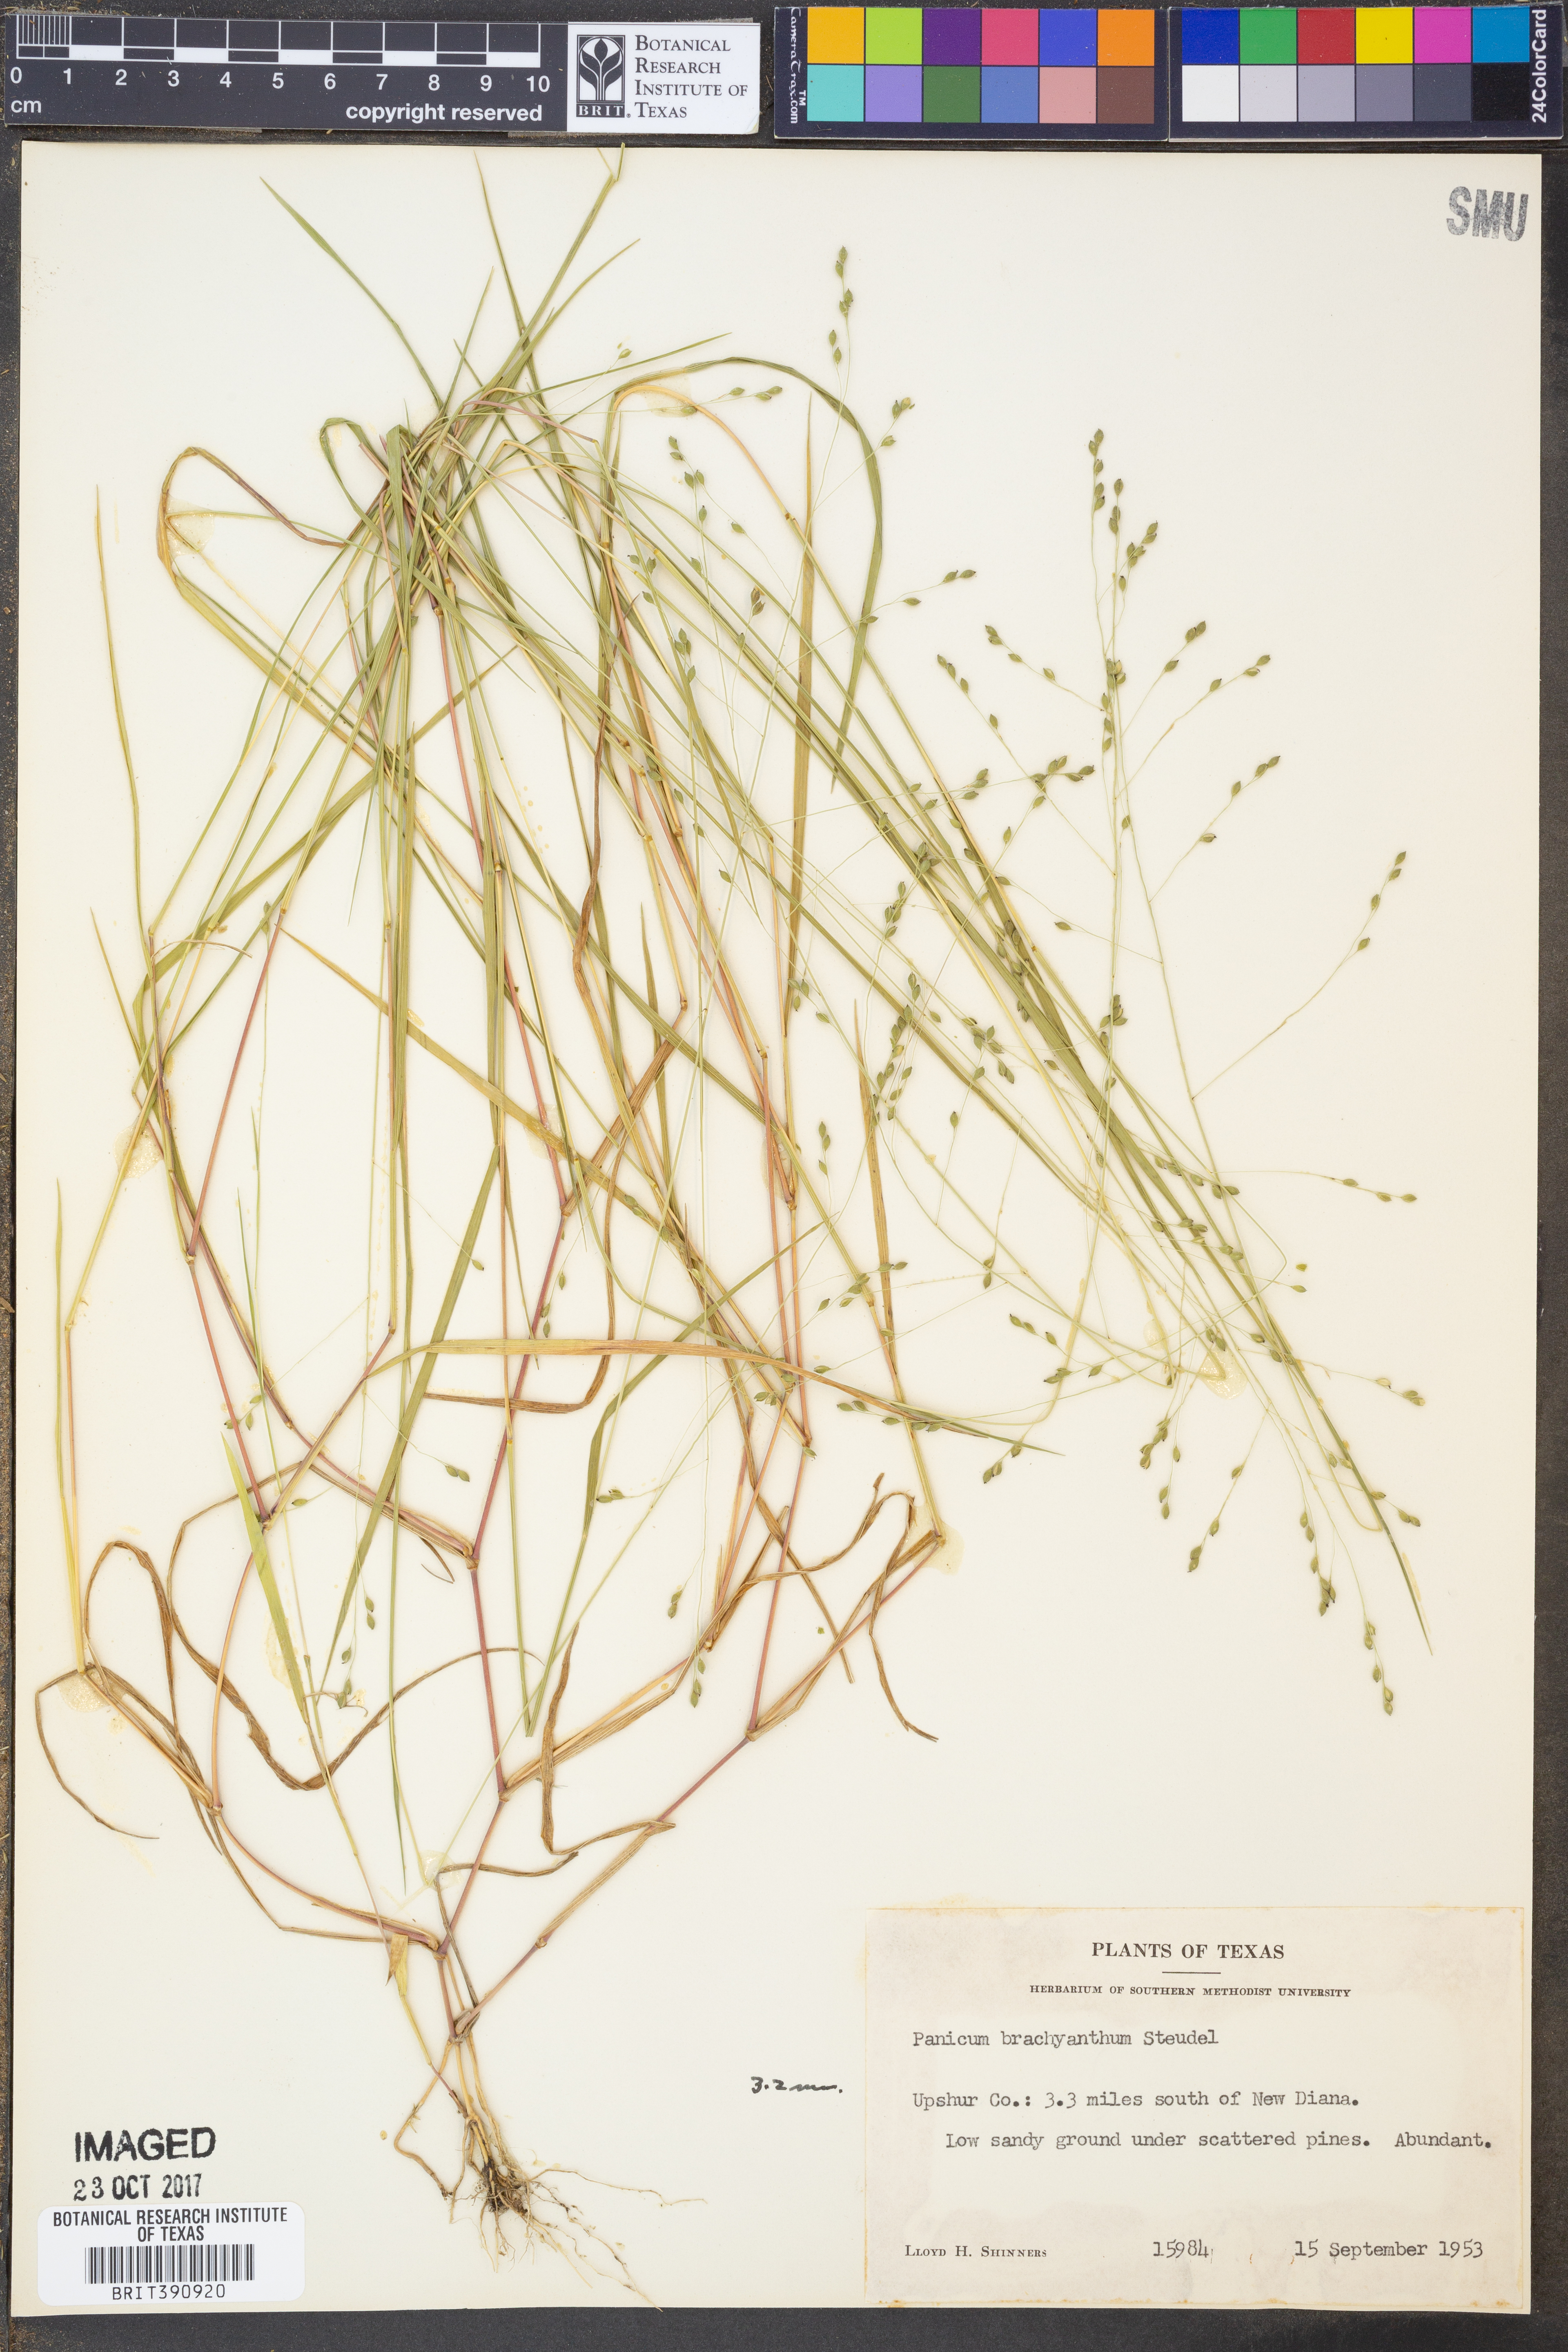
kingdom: Plantae
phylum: Tracheophyta
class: Liliopsida
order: Poales
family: Poaceae
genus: Kellochloa
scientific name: Kellochloa brachyantha
